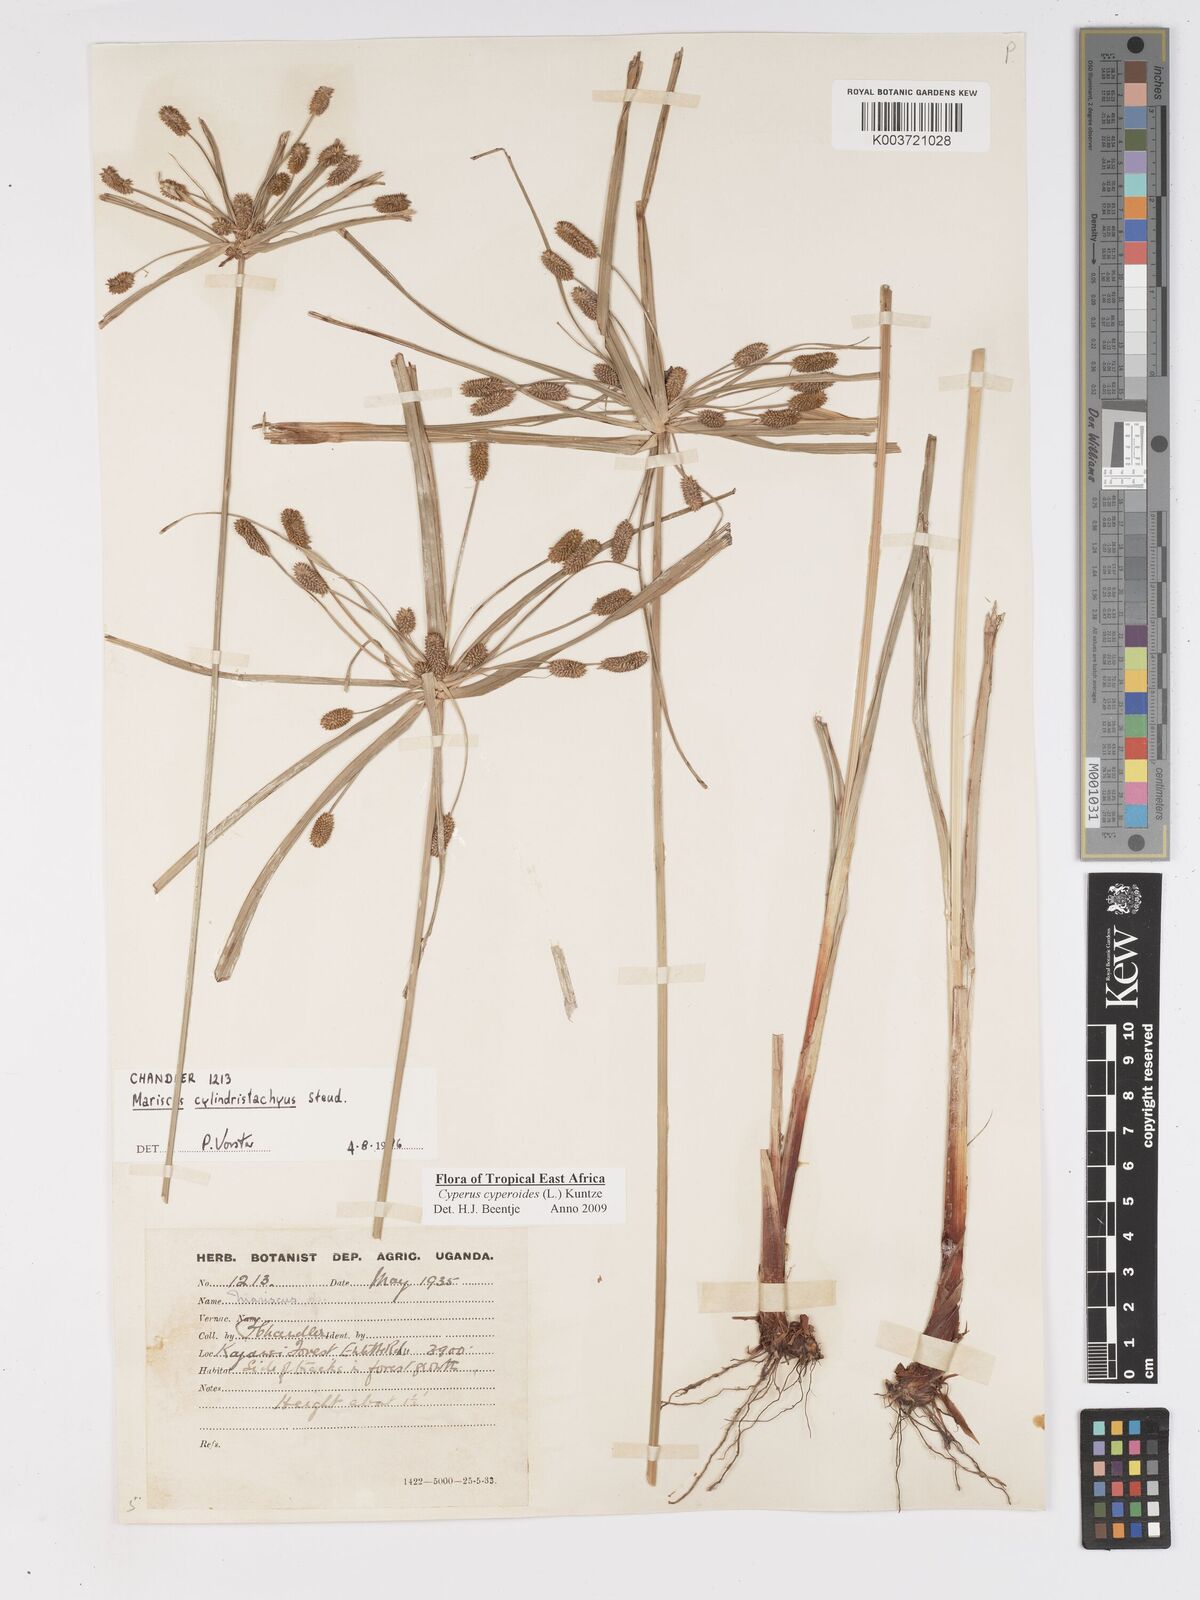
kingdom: Plantae
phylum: Tracheophyta
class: Liliopsida
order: Poales
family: Cyperaceae
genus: Cyperus
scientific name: Cyperus cyperoides
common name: Pacific island flat sedge
